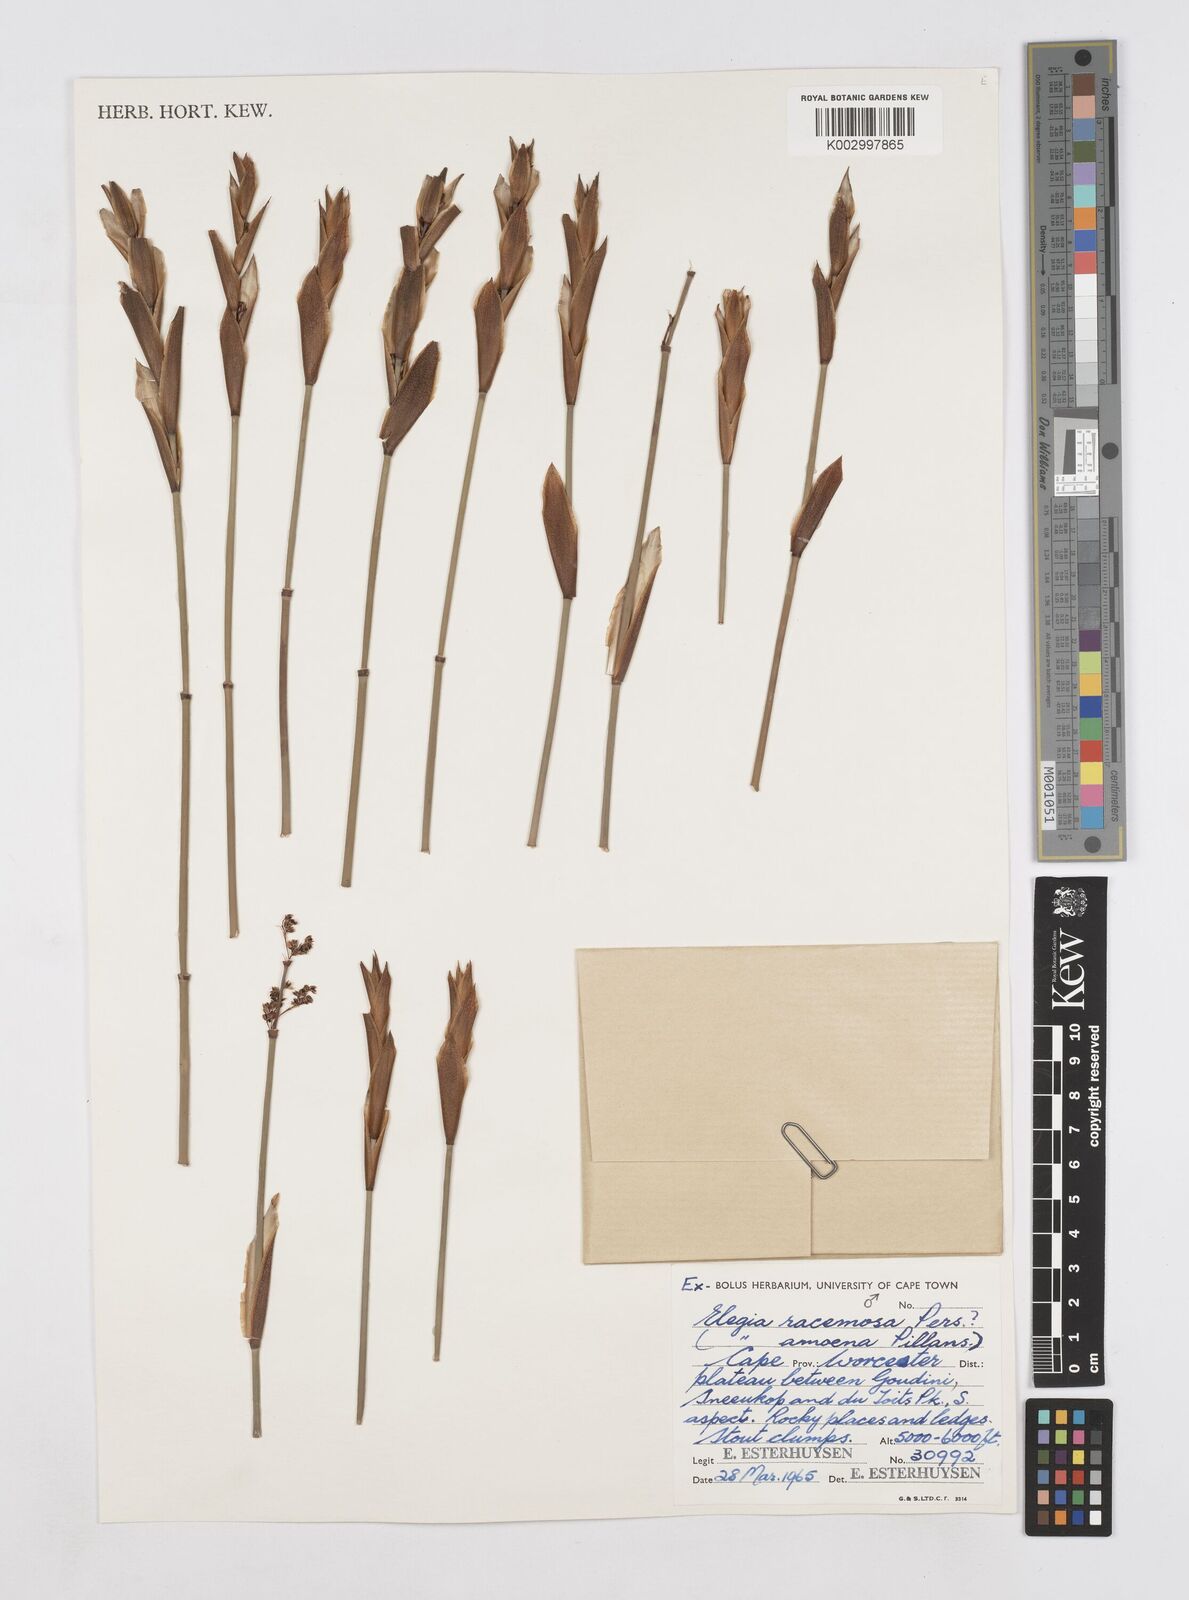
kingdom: Plantae
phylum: Tracheophyta
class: Liliopsida
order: Poales
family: Restionaceae
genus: Elegia
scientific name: Elegia racemosa
